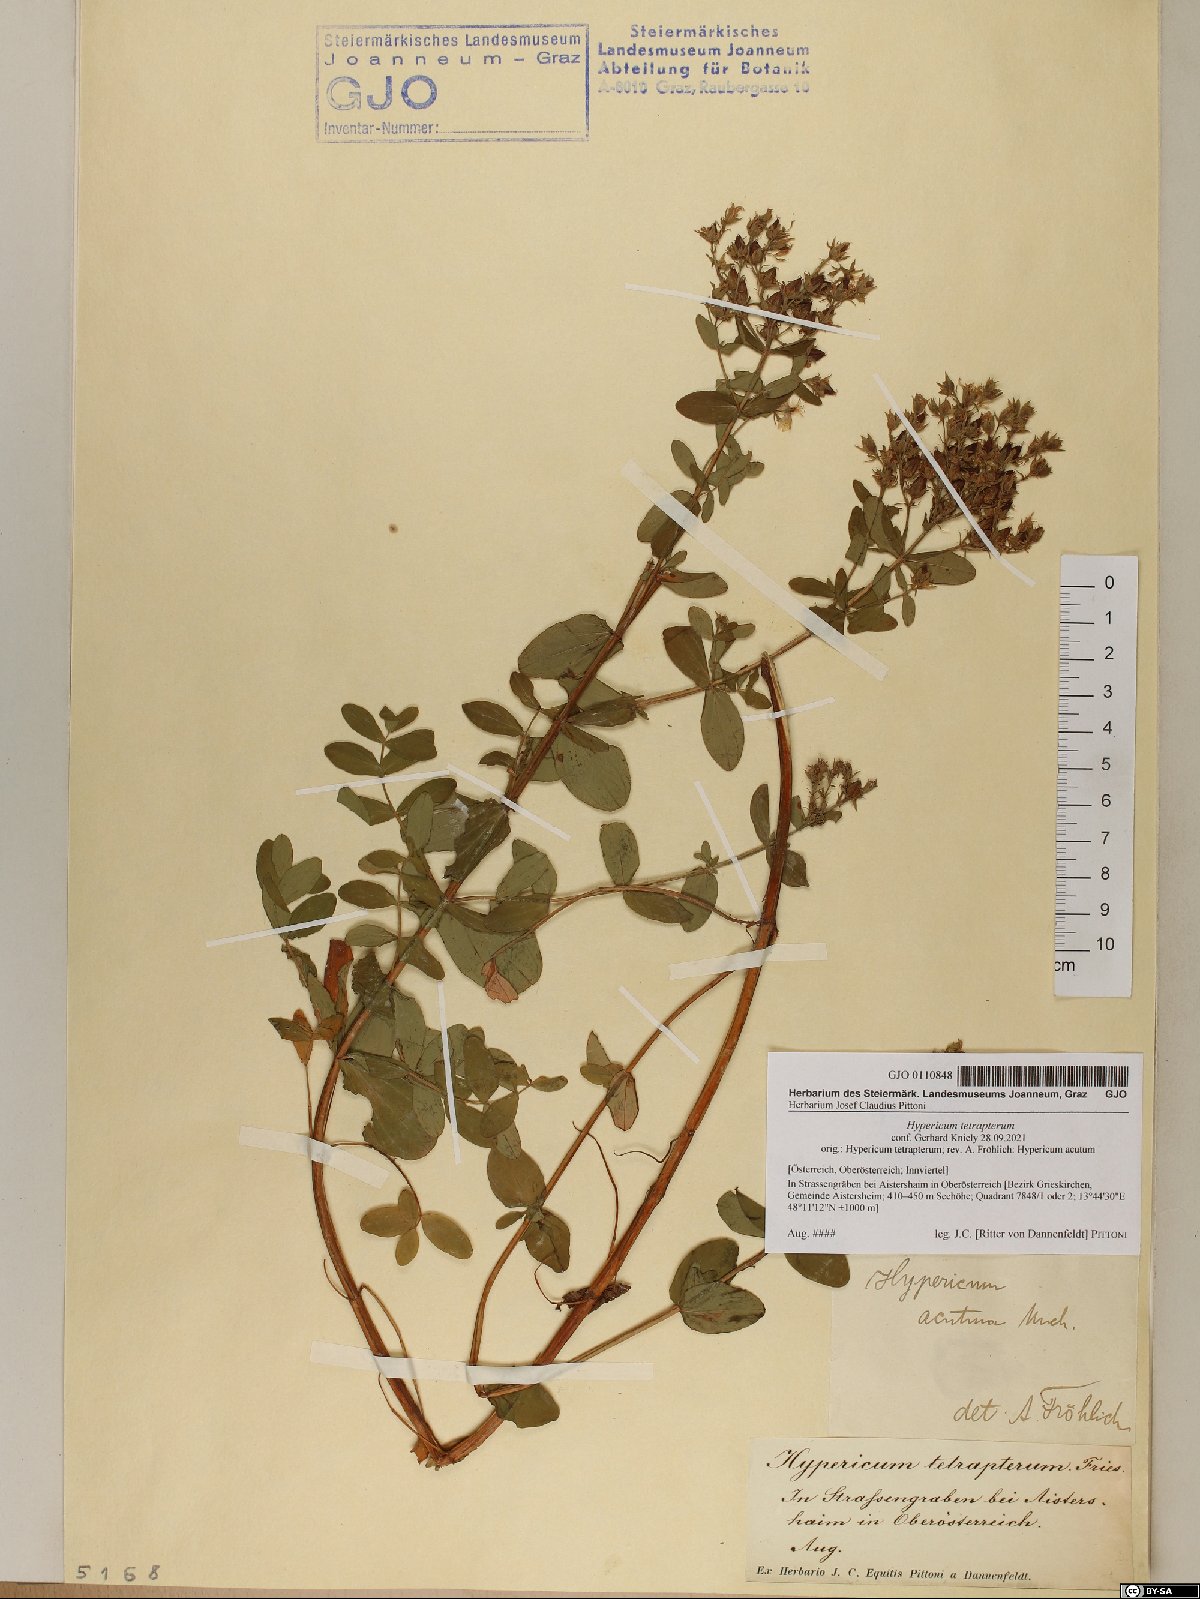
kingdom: Plantae
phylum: Tracheophyta
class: Magnoliopsida
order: Malpighiales
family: Hypericaceae
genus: Hypericum
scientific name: Hypericum tetrapterum
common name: Square-stalked st. john's-wort
